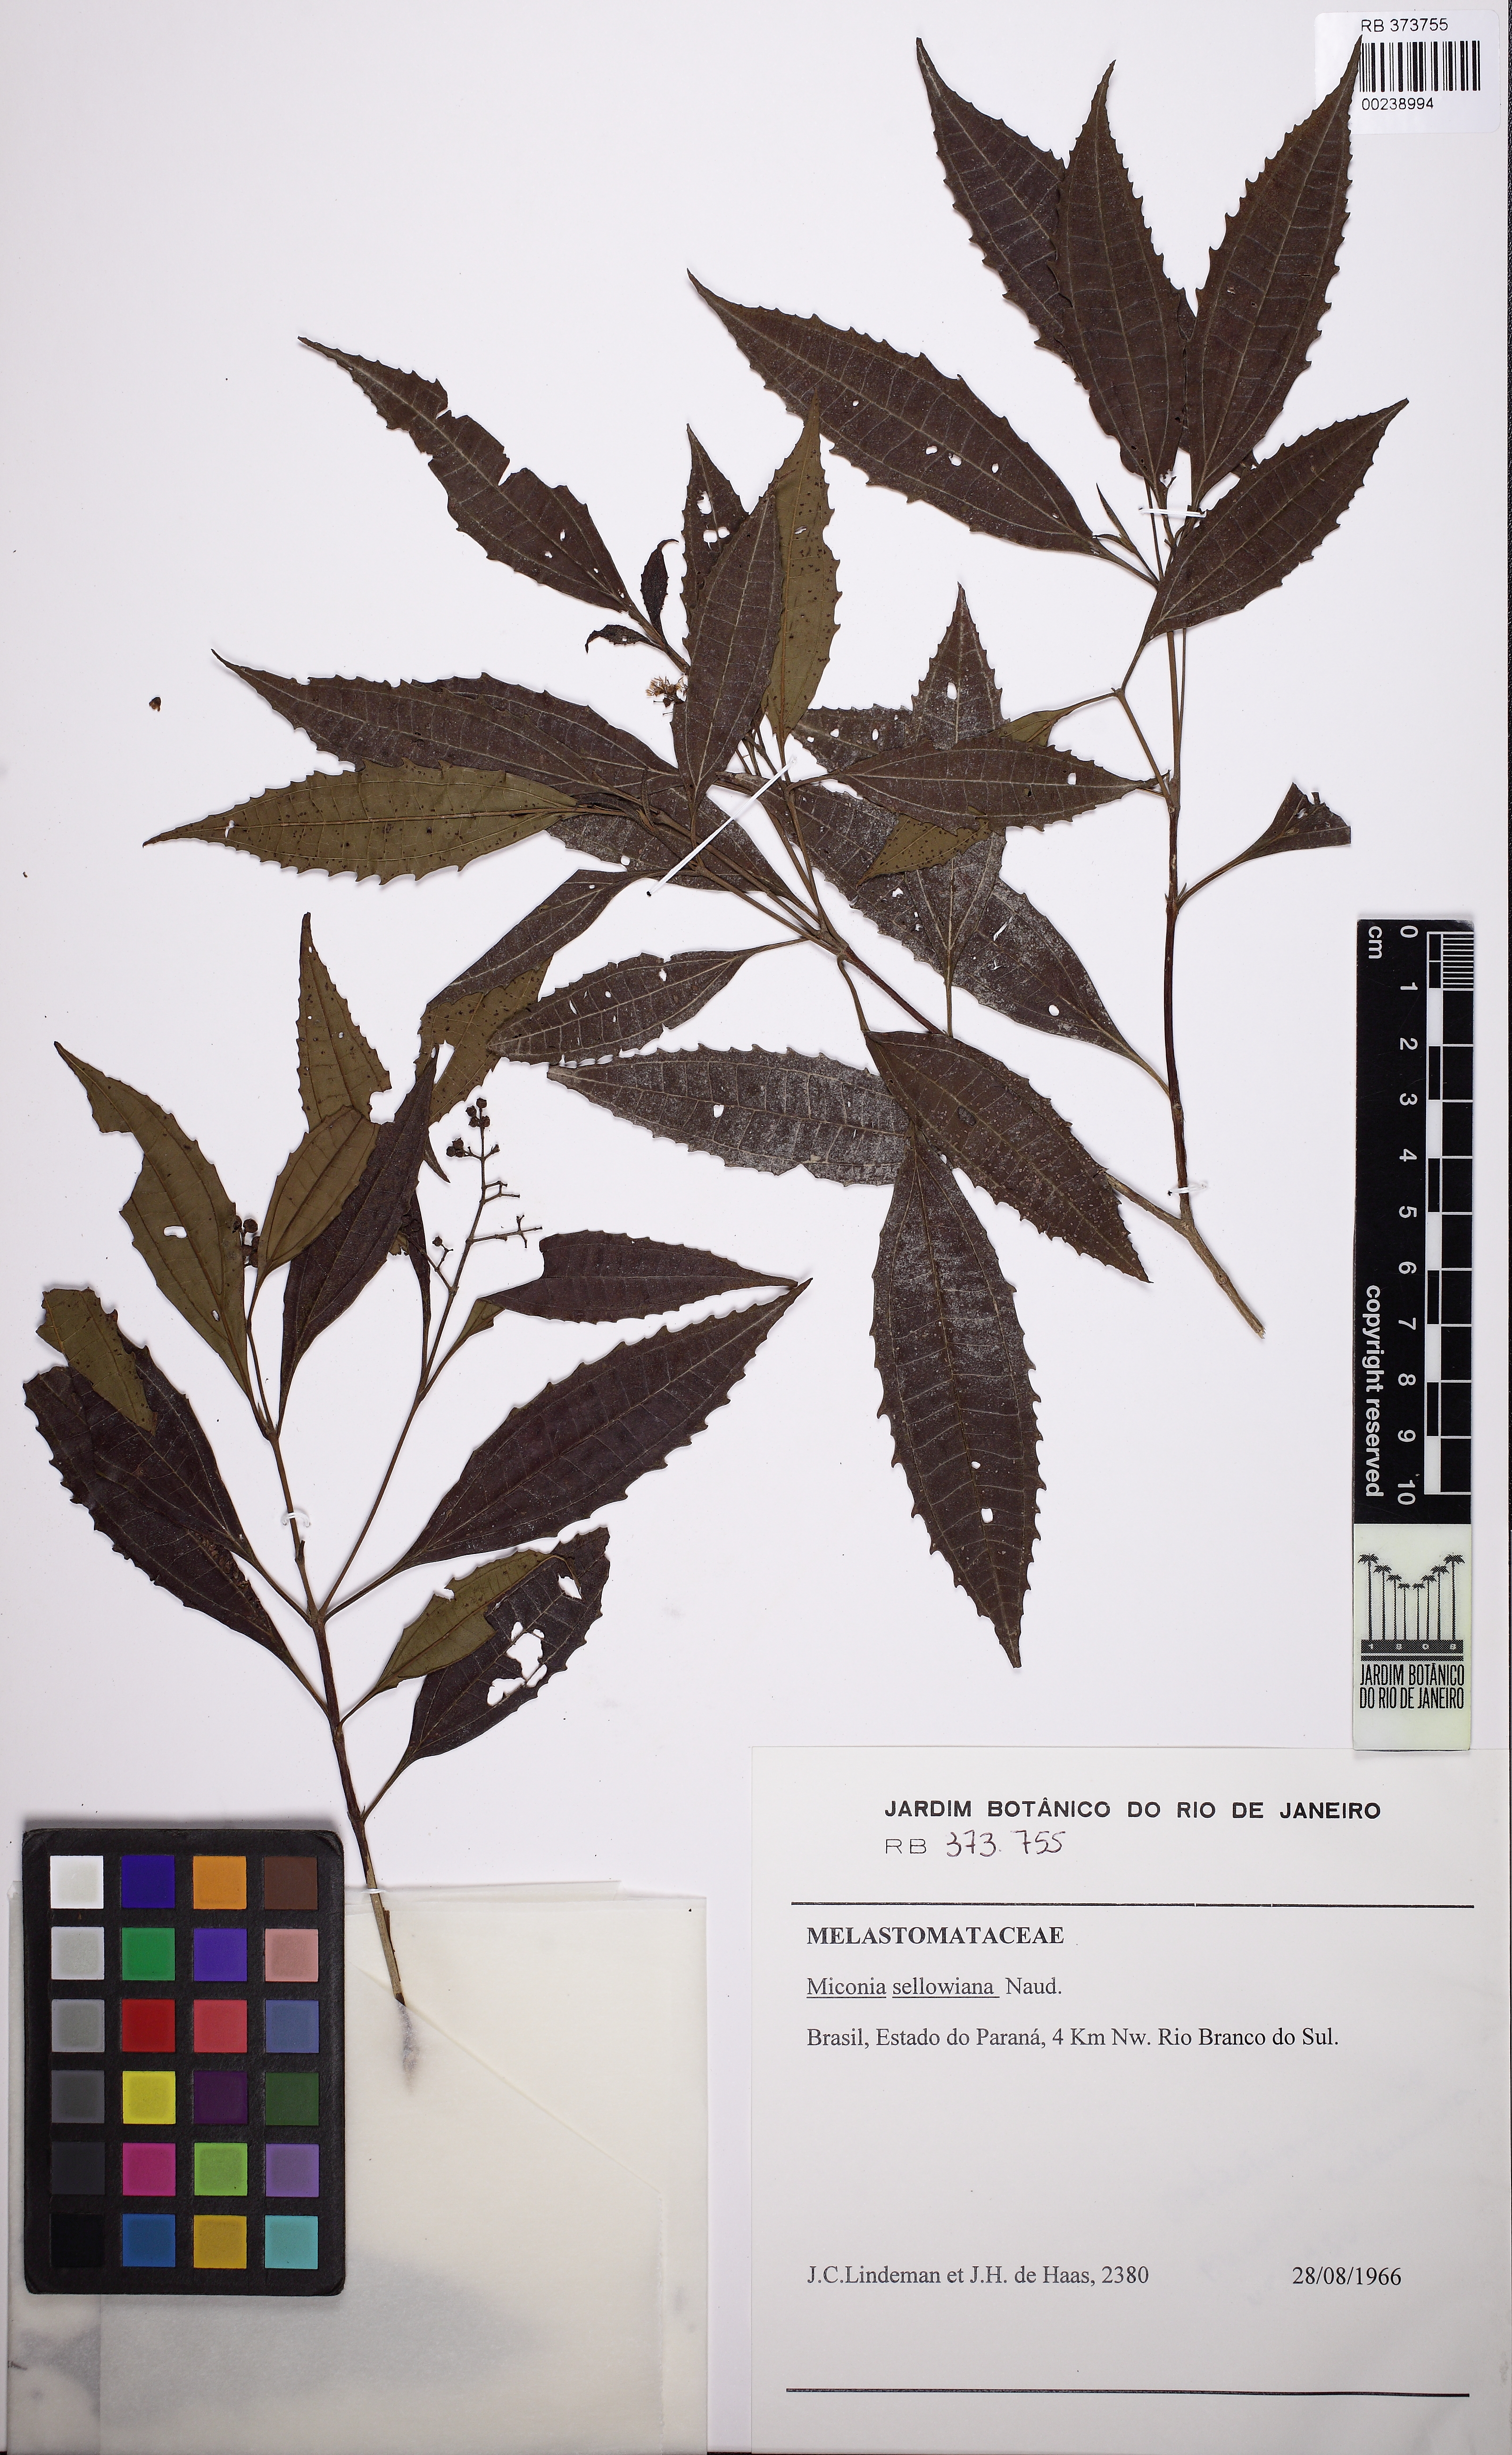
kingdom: Plantae
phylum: Tracheophyta
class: Magnoliopsida
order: Myrtales
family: Melastomataceae
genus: Miconia
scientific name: Miconia sellowiana
